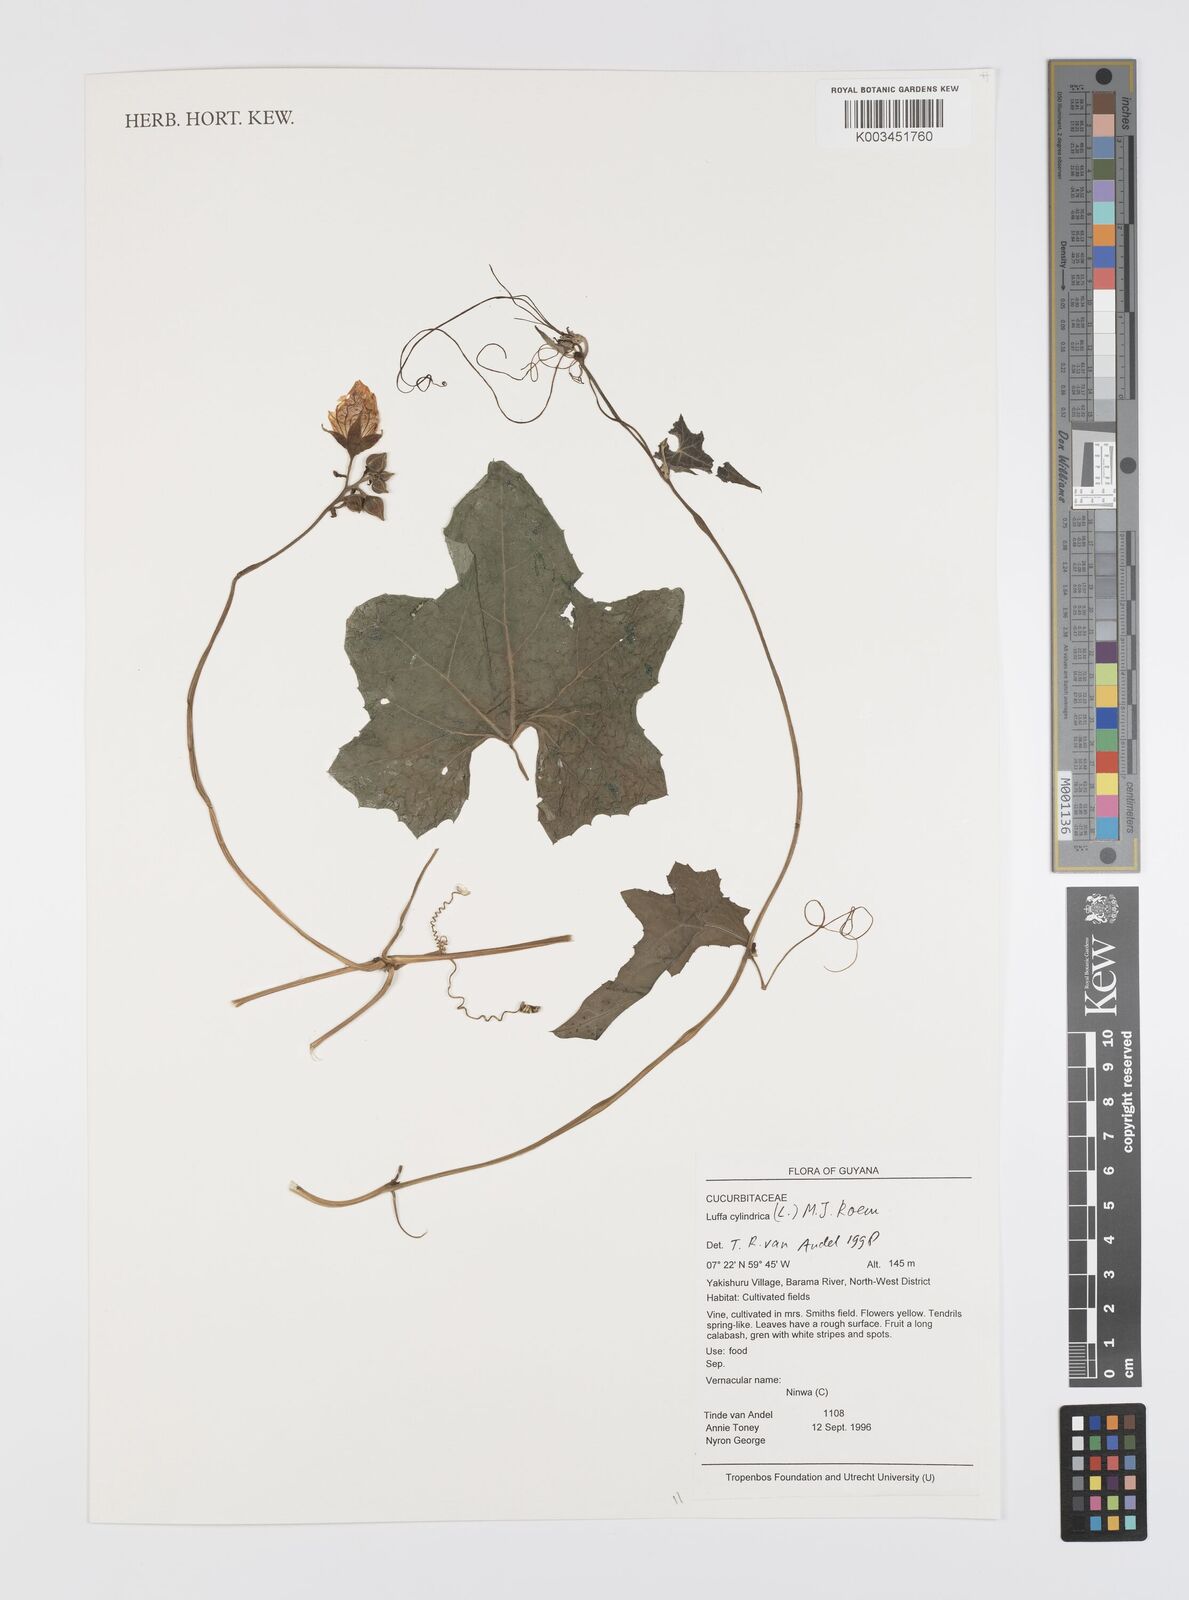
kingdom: Plantae
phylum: Tracheophyta
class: Magnoliopsida
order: Cucurbitales
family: Cucurbitaceae
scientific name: Cucurbitaceae
